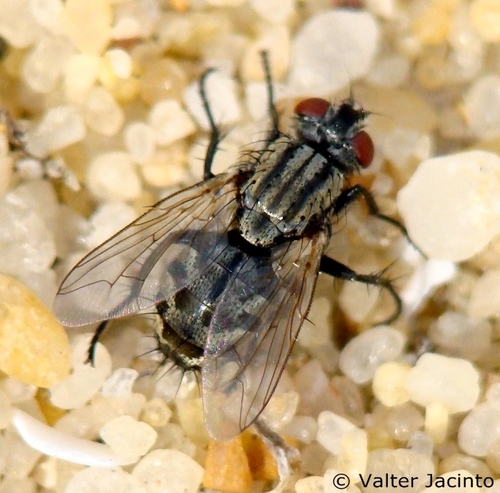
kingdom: Animalia
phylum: Arthropoda
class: Insecta
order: Diptera
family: Sarcophagidae
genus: Sarcophaga
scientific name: Sarcophaga balanina
